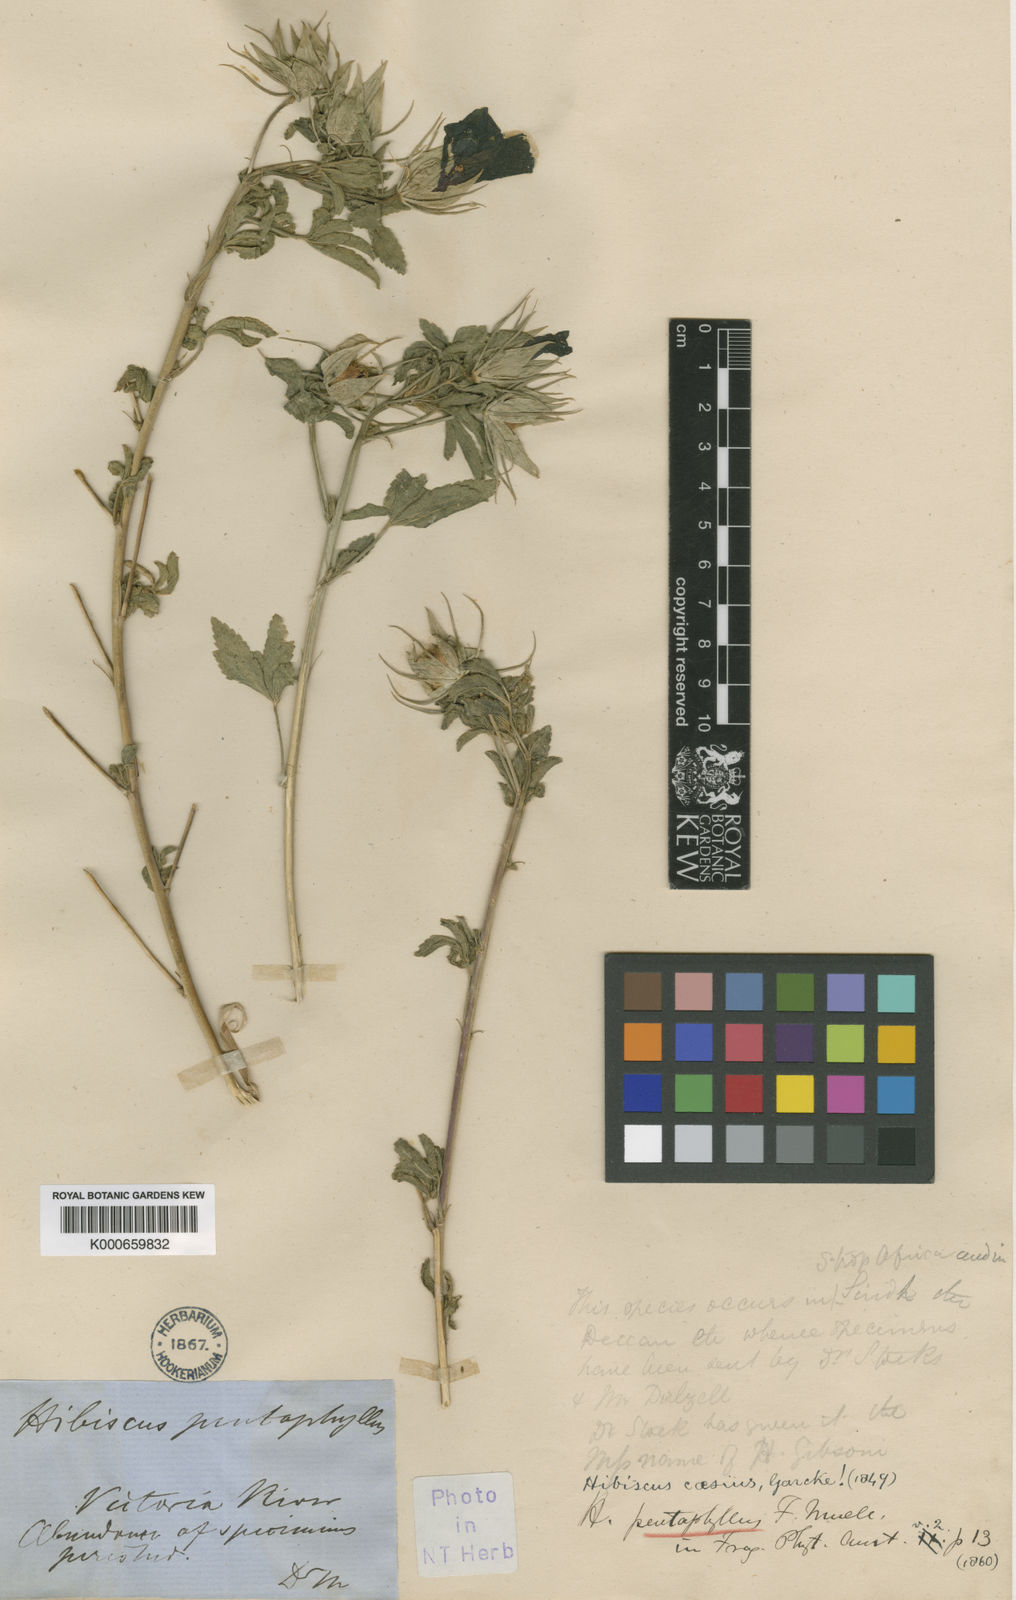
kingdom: Plantae
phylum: Tracheophyta
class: Magnoliopsida
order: Malvales
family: Malvaceae
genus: Hibiscus
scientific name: Hibiscus caesius
